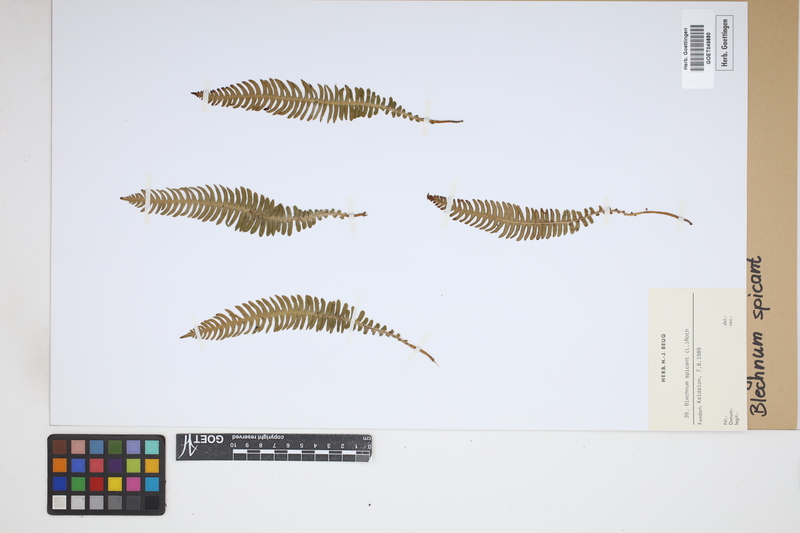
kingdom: Plantae
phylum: Tracheophyta
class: Polypodiopsida
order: Polypodiales
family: Blechnaceae
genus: Struthiopteris
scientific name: Struthiopteris spicant
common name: Deer fern
